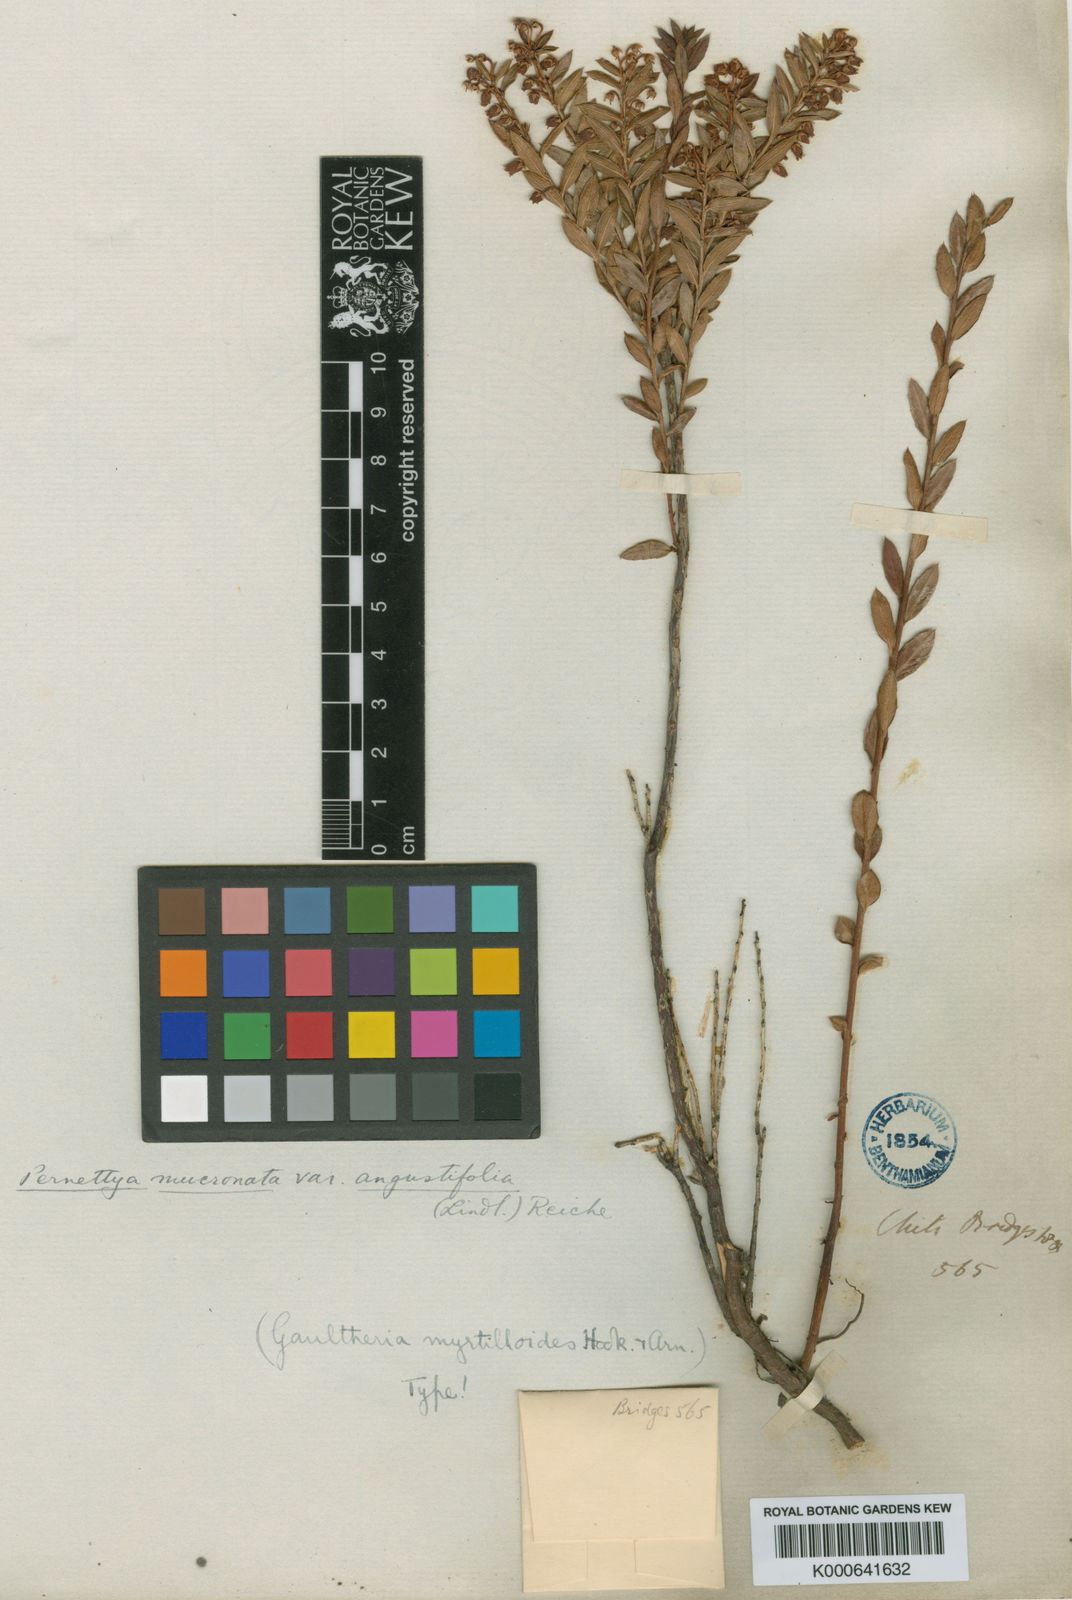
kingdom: Plantae
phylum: Tracheophyta
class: Magnoliopsida
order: Ericales
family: Ericaceae
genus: Gaultheria
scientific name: Gaultheria
